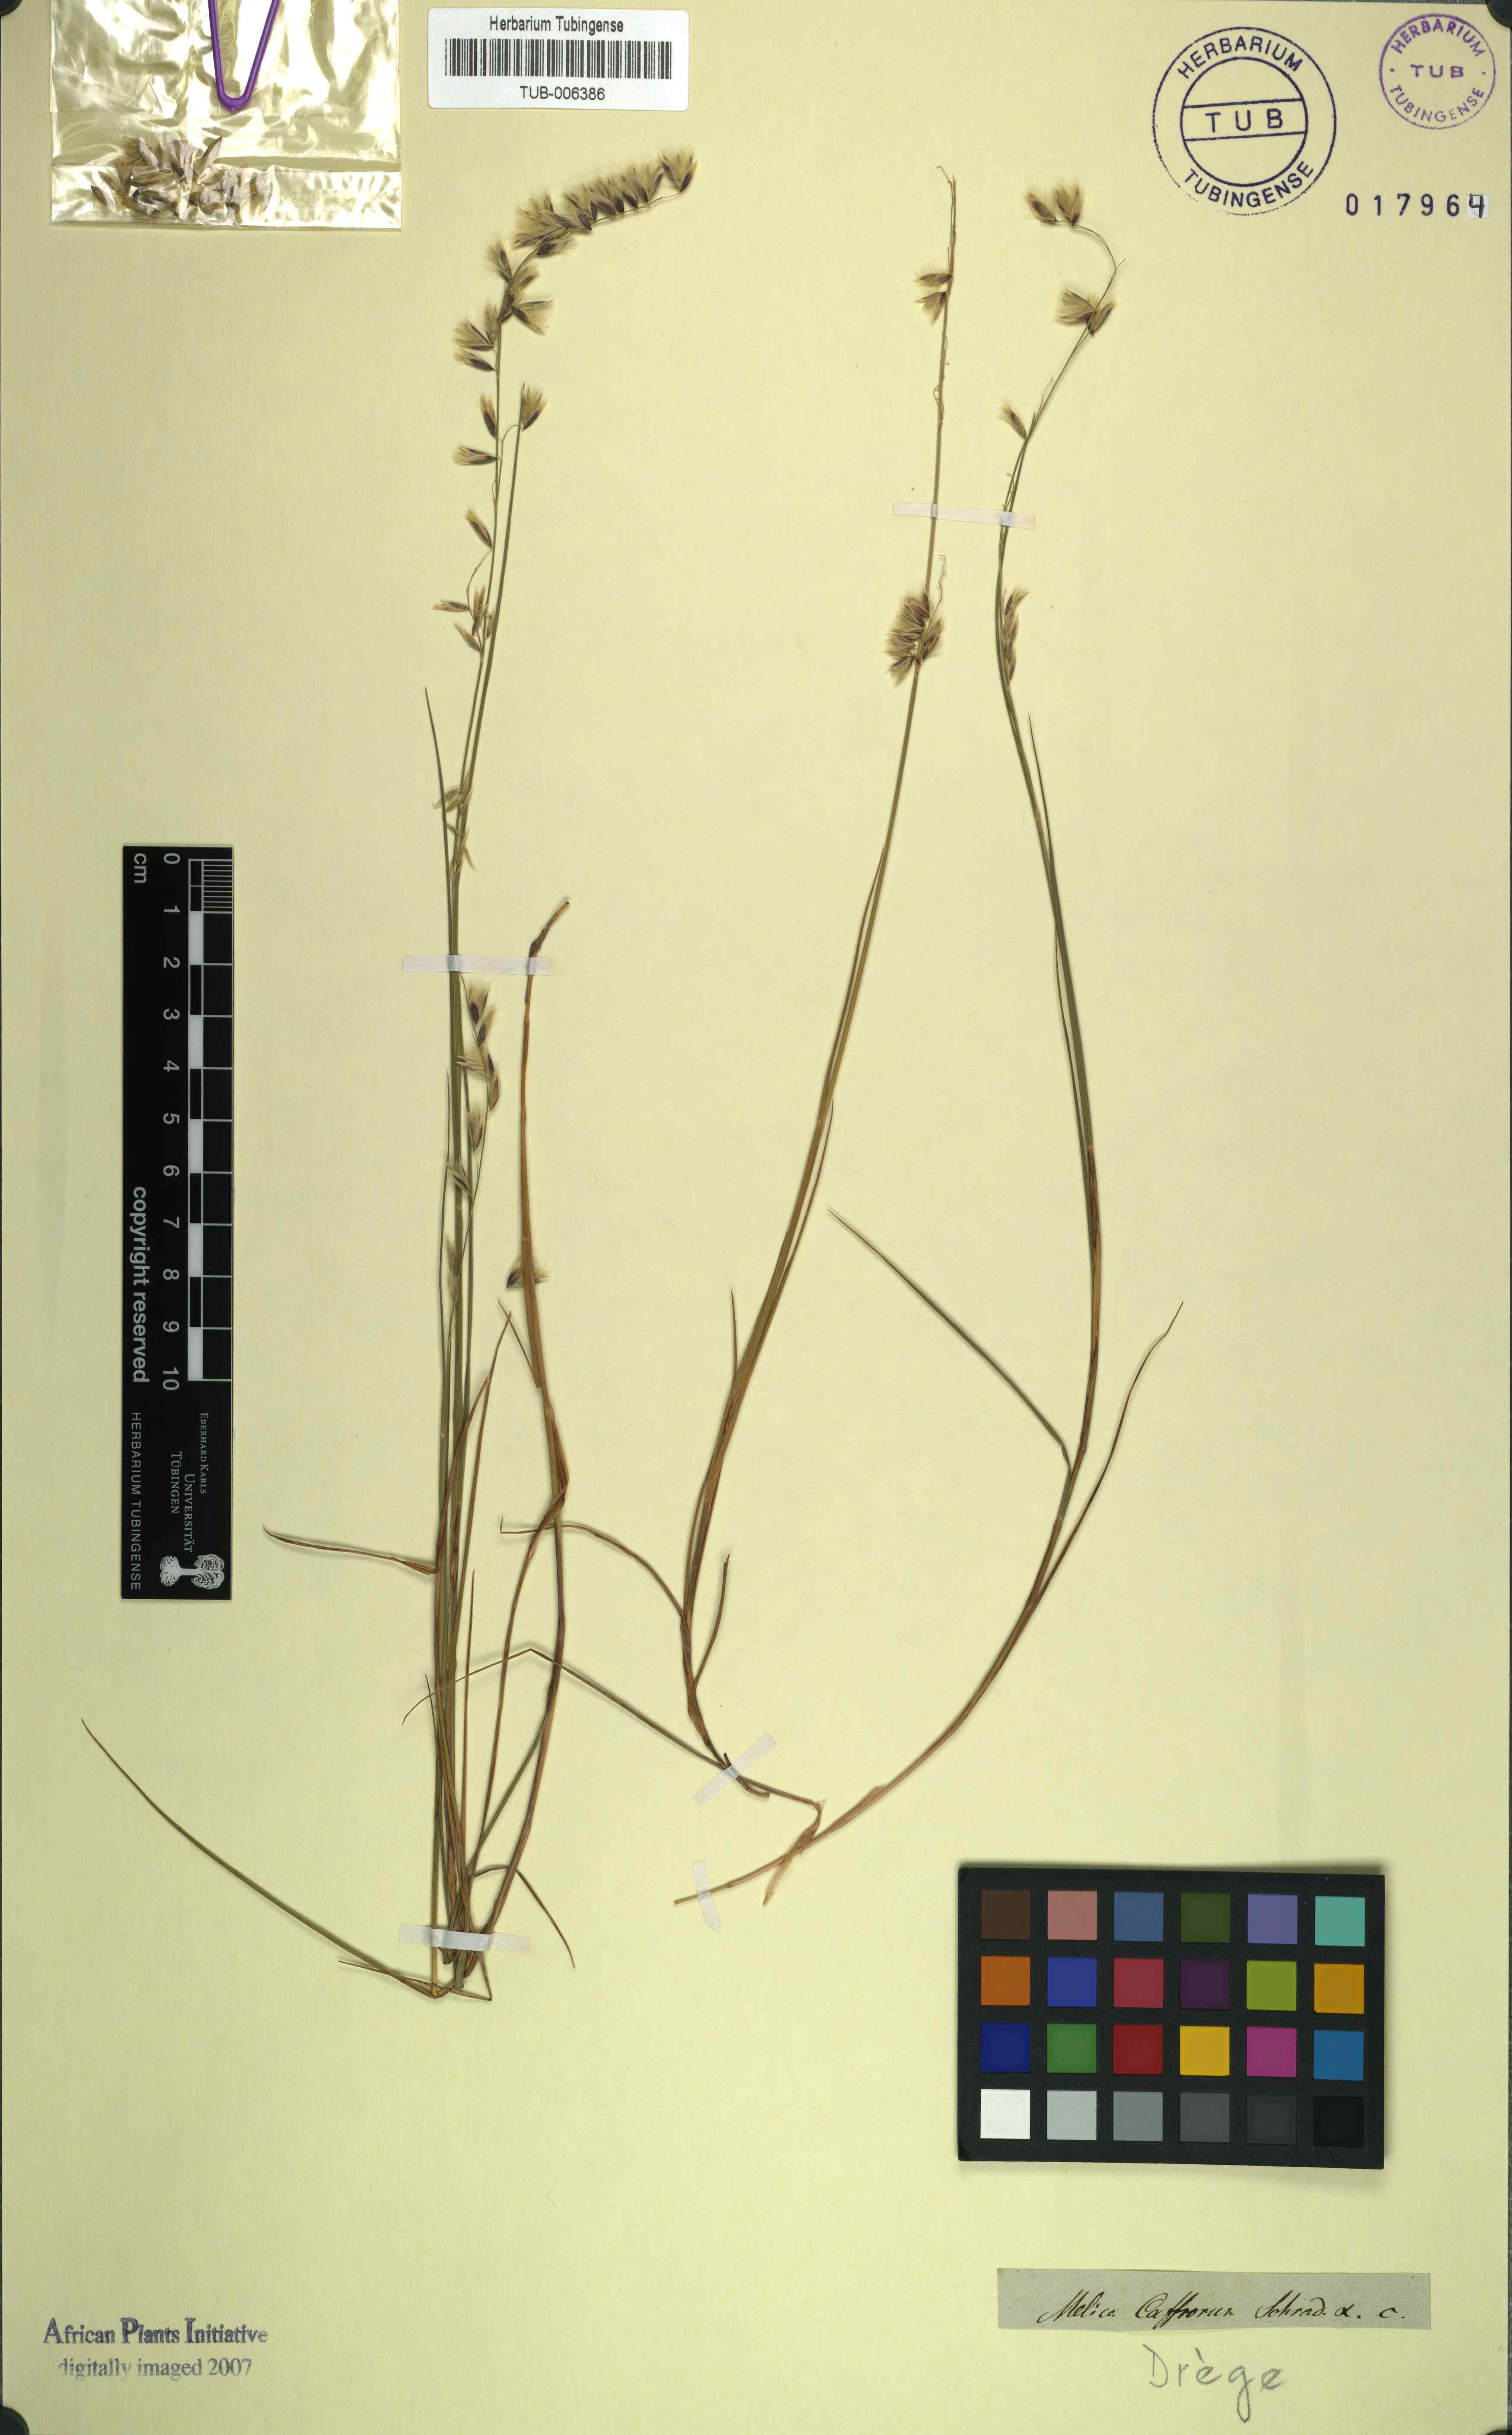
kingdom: Plantae
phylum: Tracheophyta
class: Liliopsida
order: Poales
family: Poaceae
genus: Melica
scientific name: Melica racemosa
